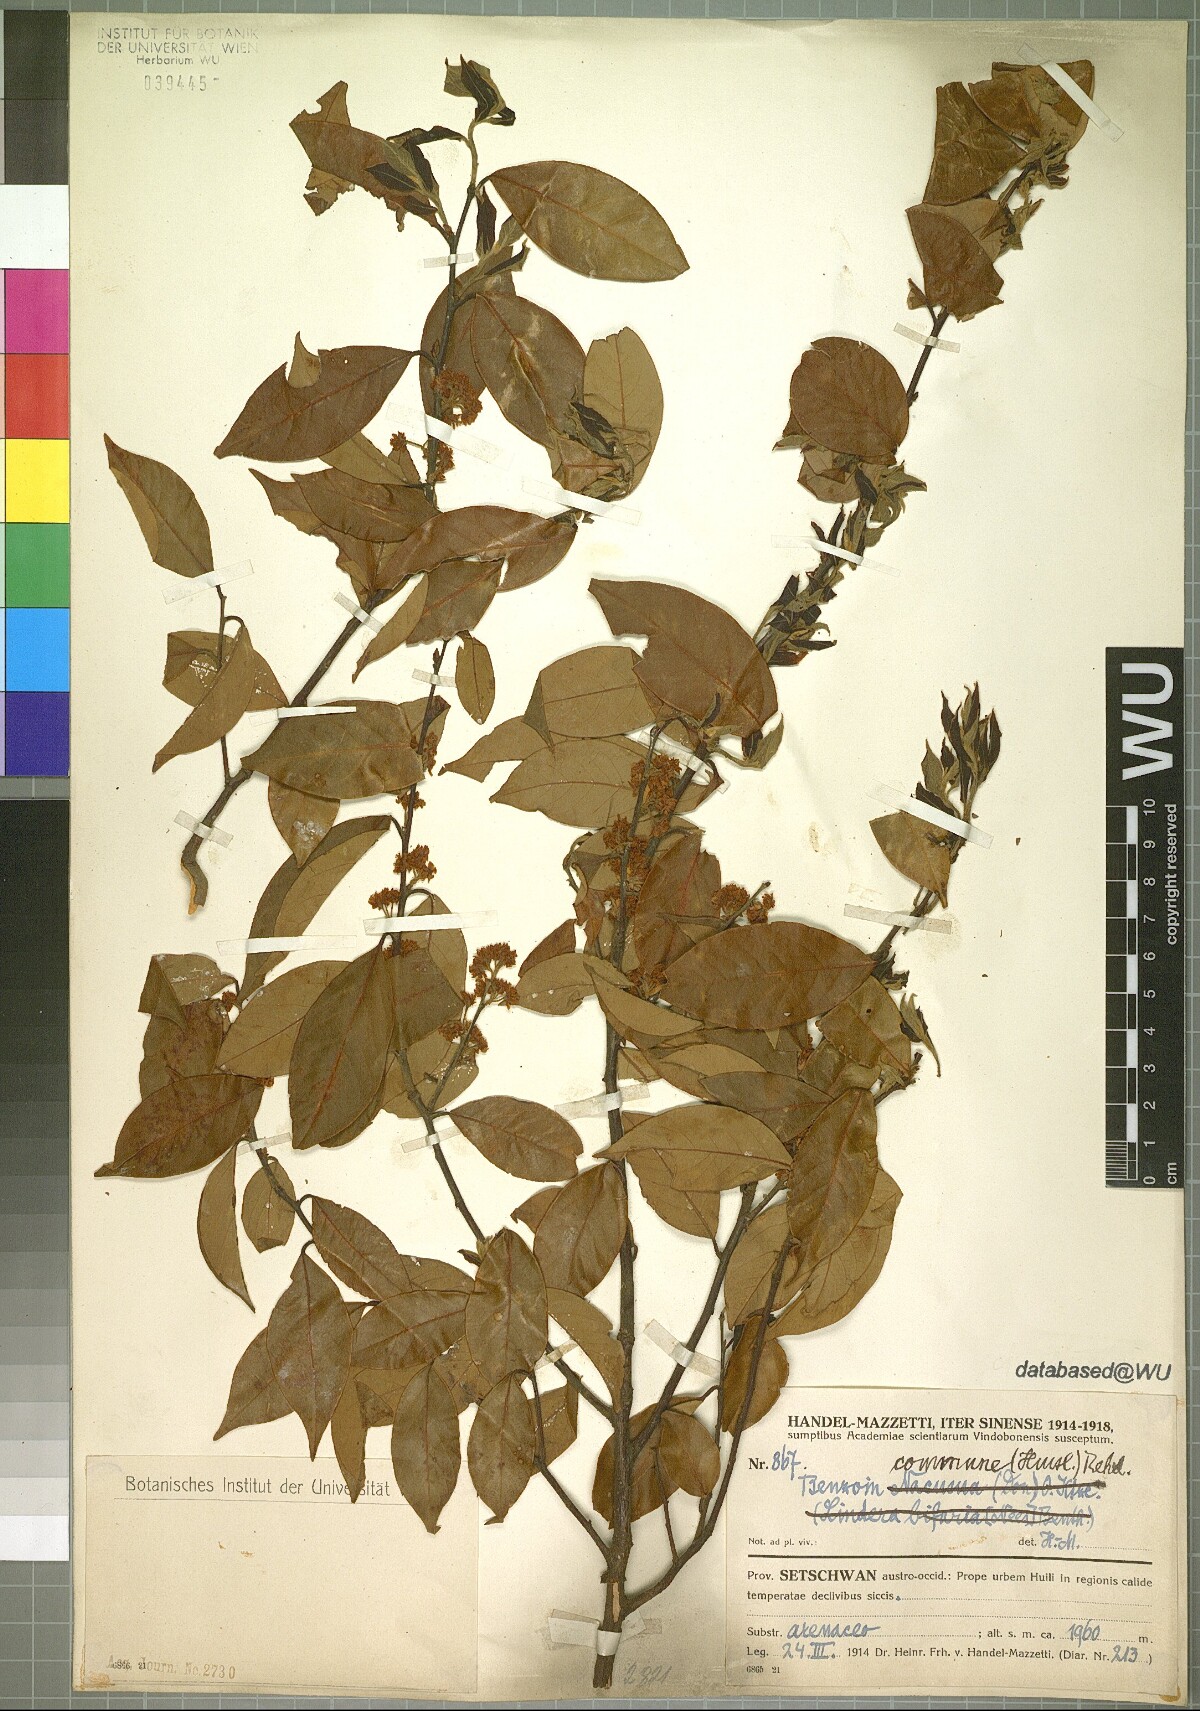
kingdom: Plantae
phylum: Tracheophyta
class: Magnoliopsida
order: Laurales
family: Lauraceae
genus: Lindera
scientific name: Lindera communis
